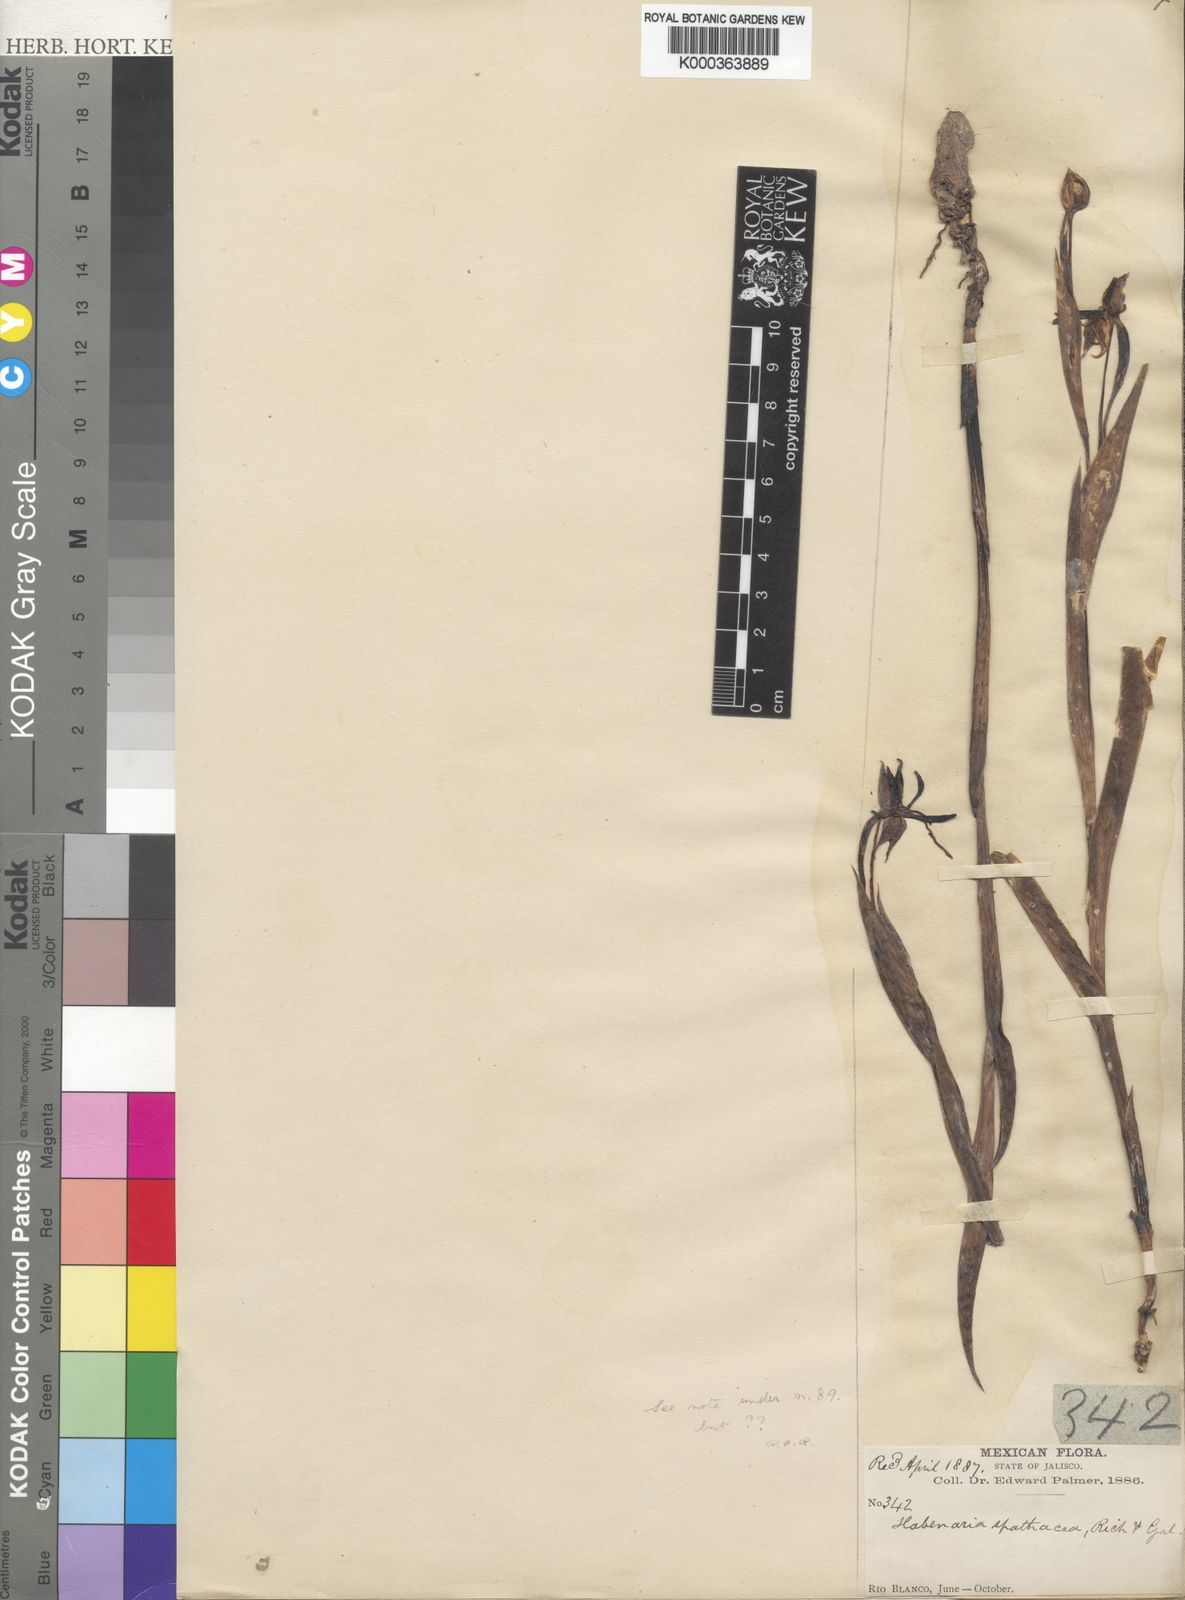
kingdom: Plantae
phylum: Tracheophyta
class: Liliopsida
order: Asparagales
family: Orchidaceae
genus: Habenaria
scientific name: Habenaria trifida
